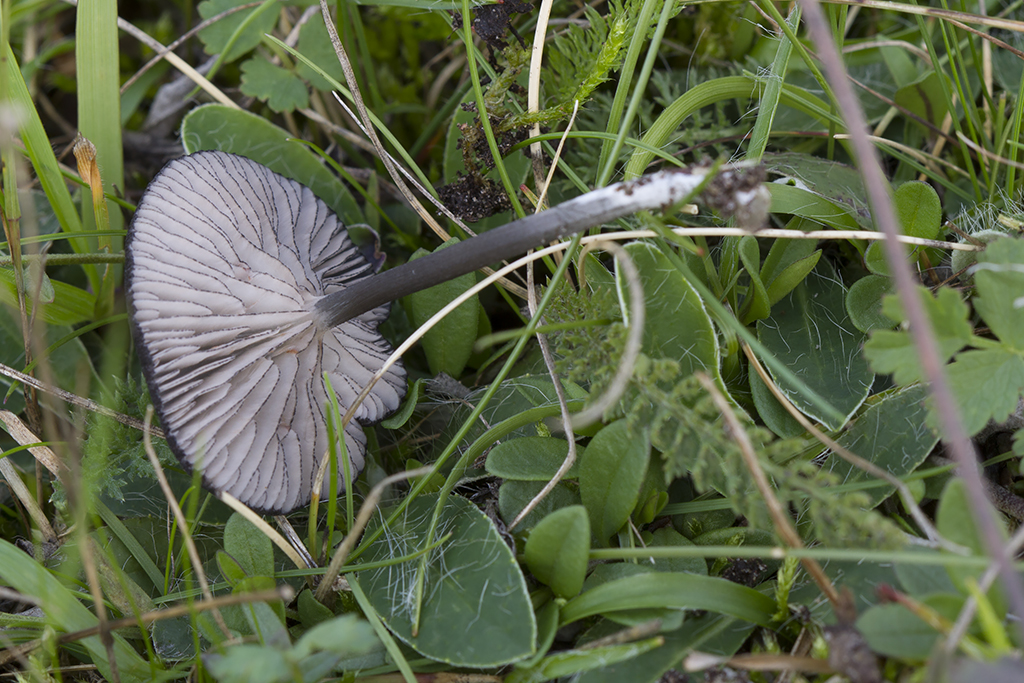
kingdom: Fungi
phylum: Basidiomycota
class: Agaricomycetes
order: Agaricales
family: Entolomataceae
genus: Entoloma
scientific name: Entoloma
